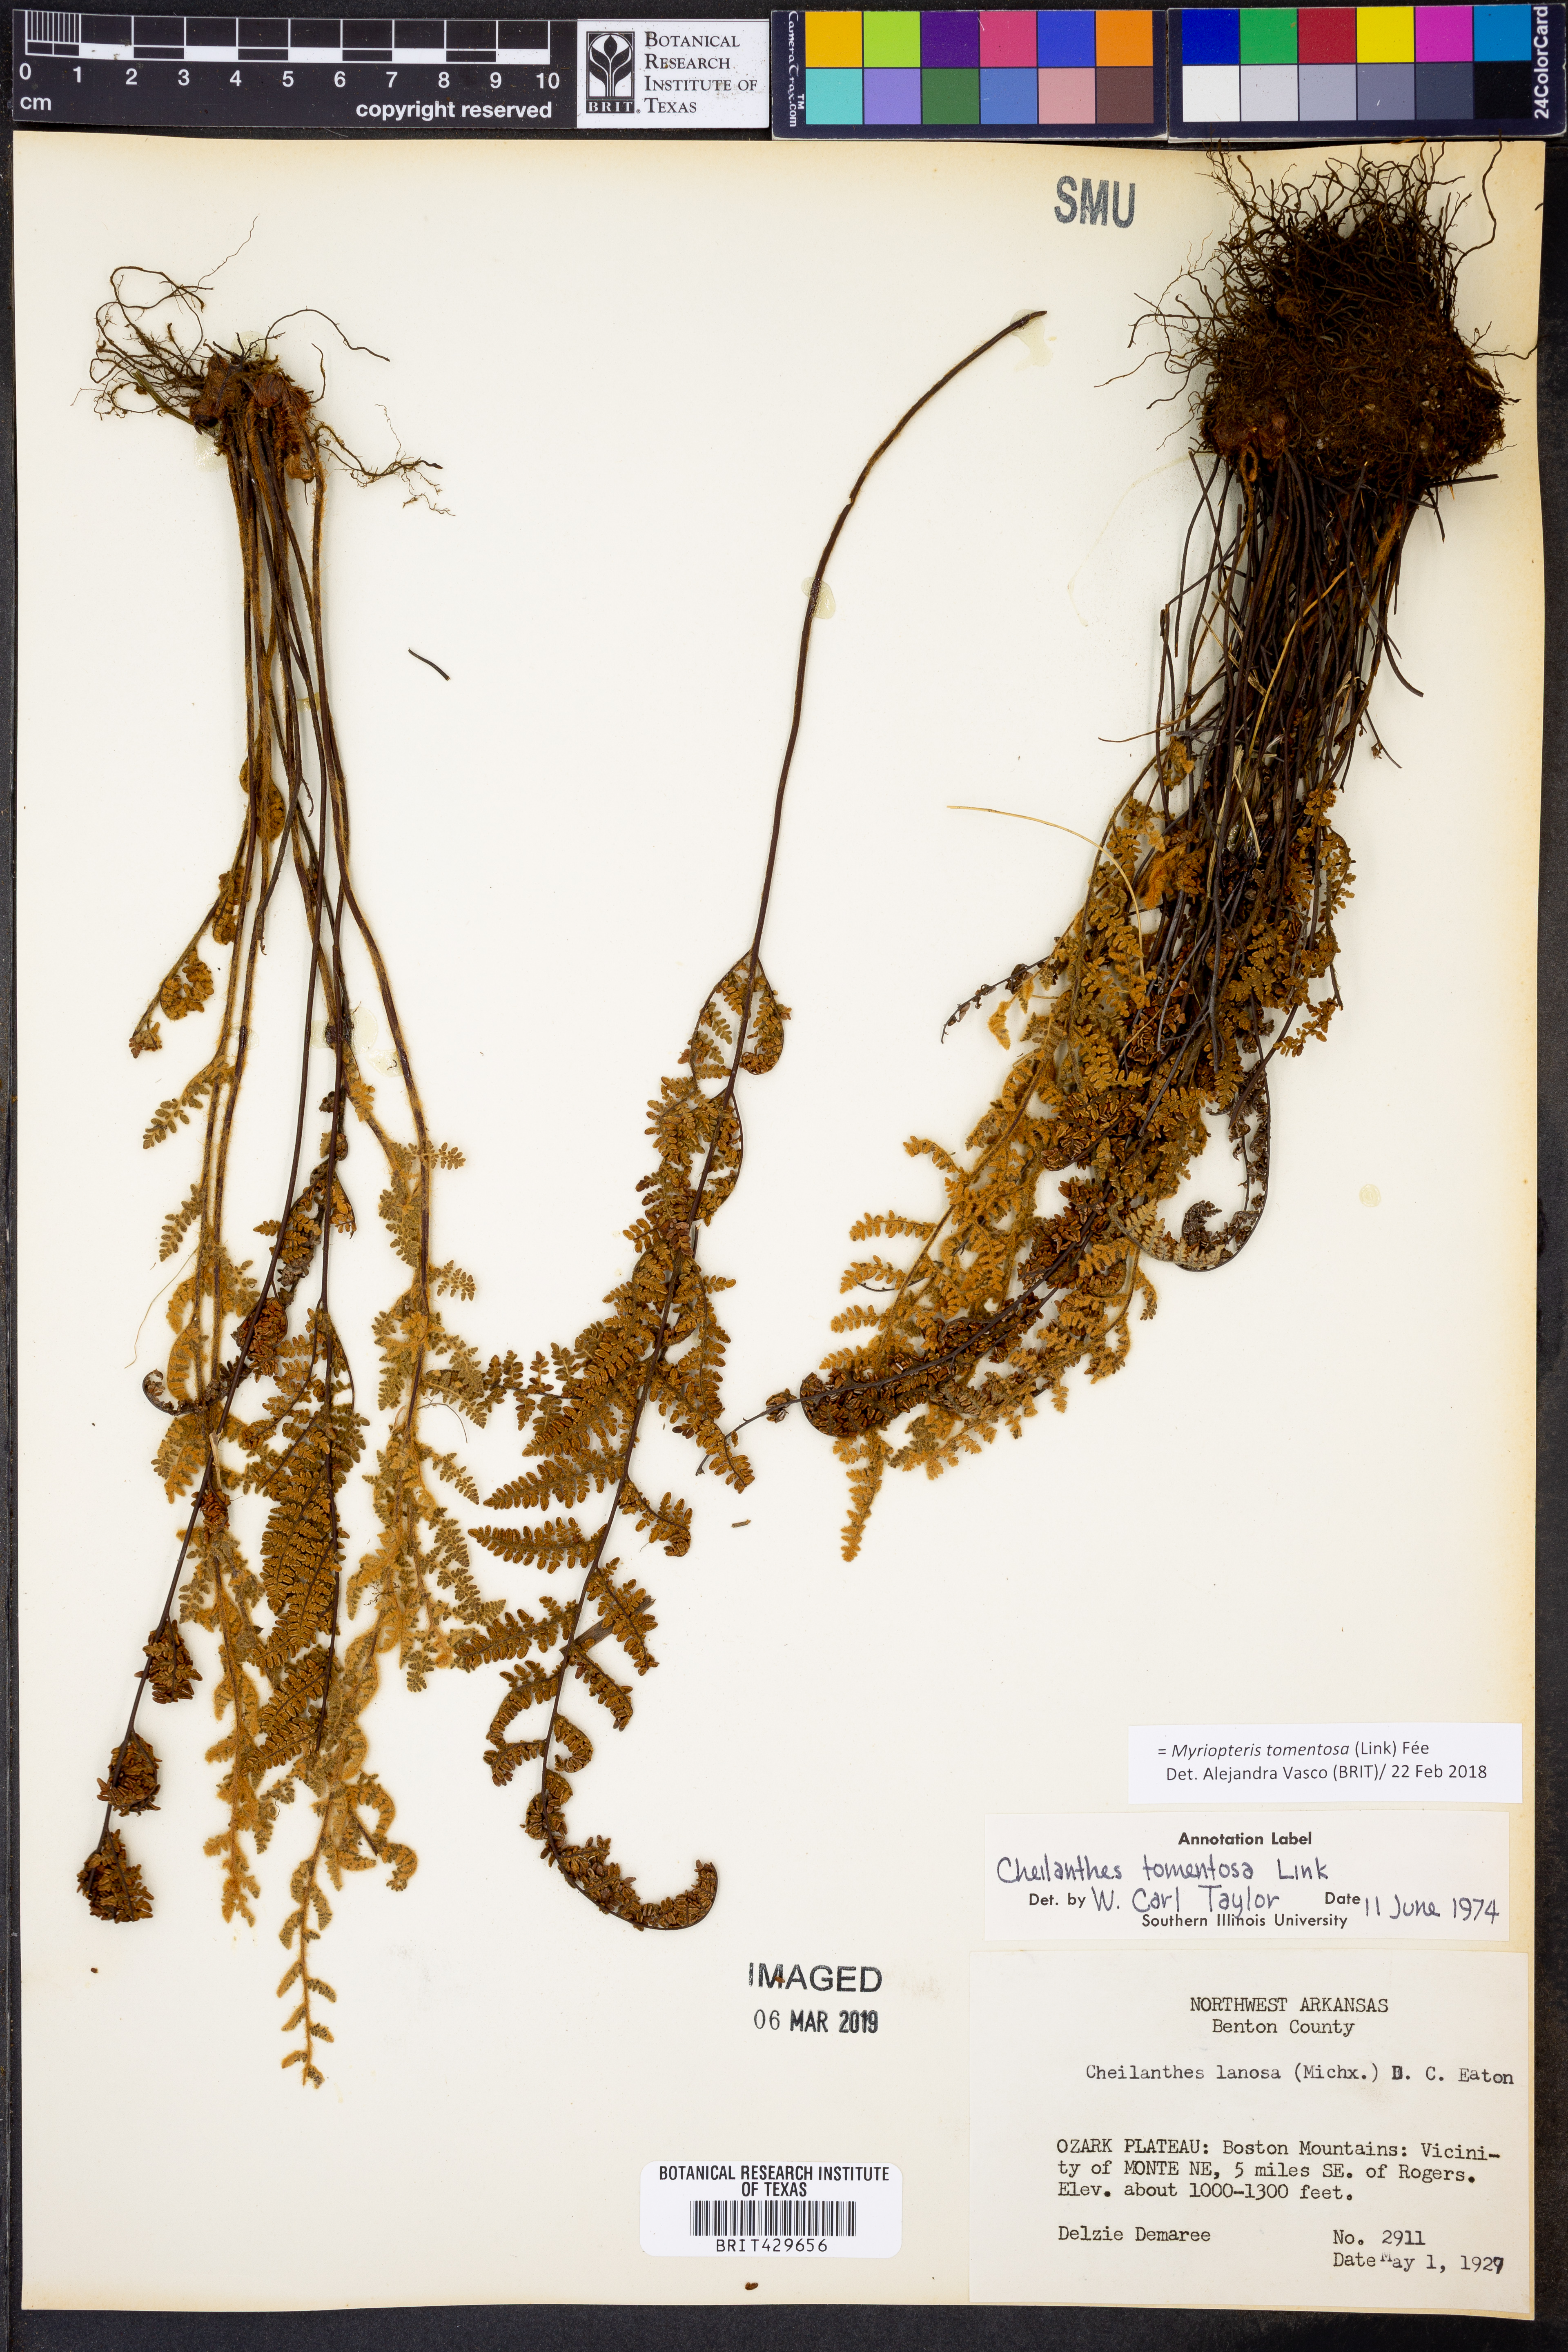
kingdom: Plantae
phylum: Tracheophyta
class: Polypodiopsida
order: Polypodiales
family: Pteridaceae
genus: Myriopteris
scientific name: Myriopteris tomentosa
